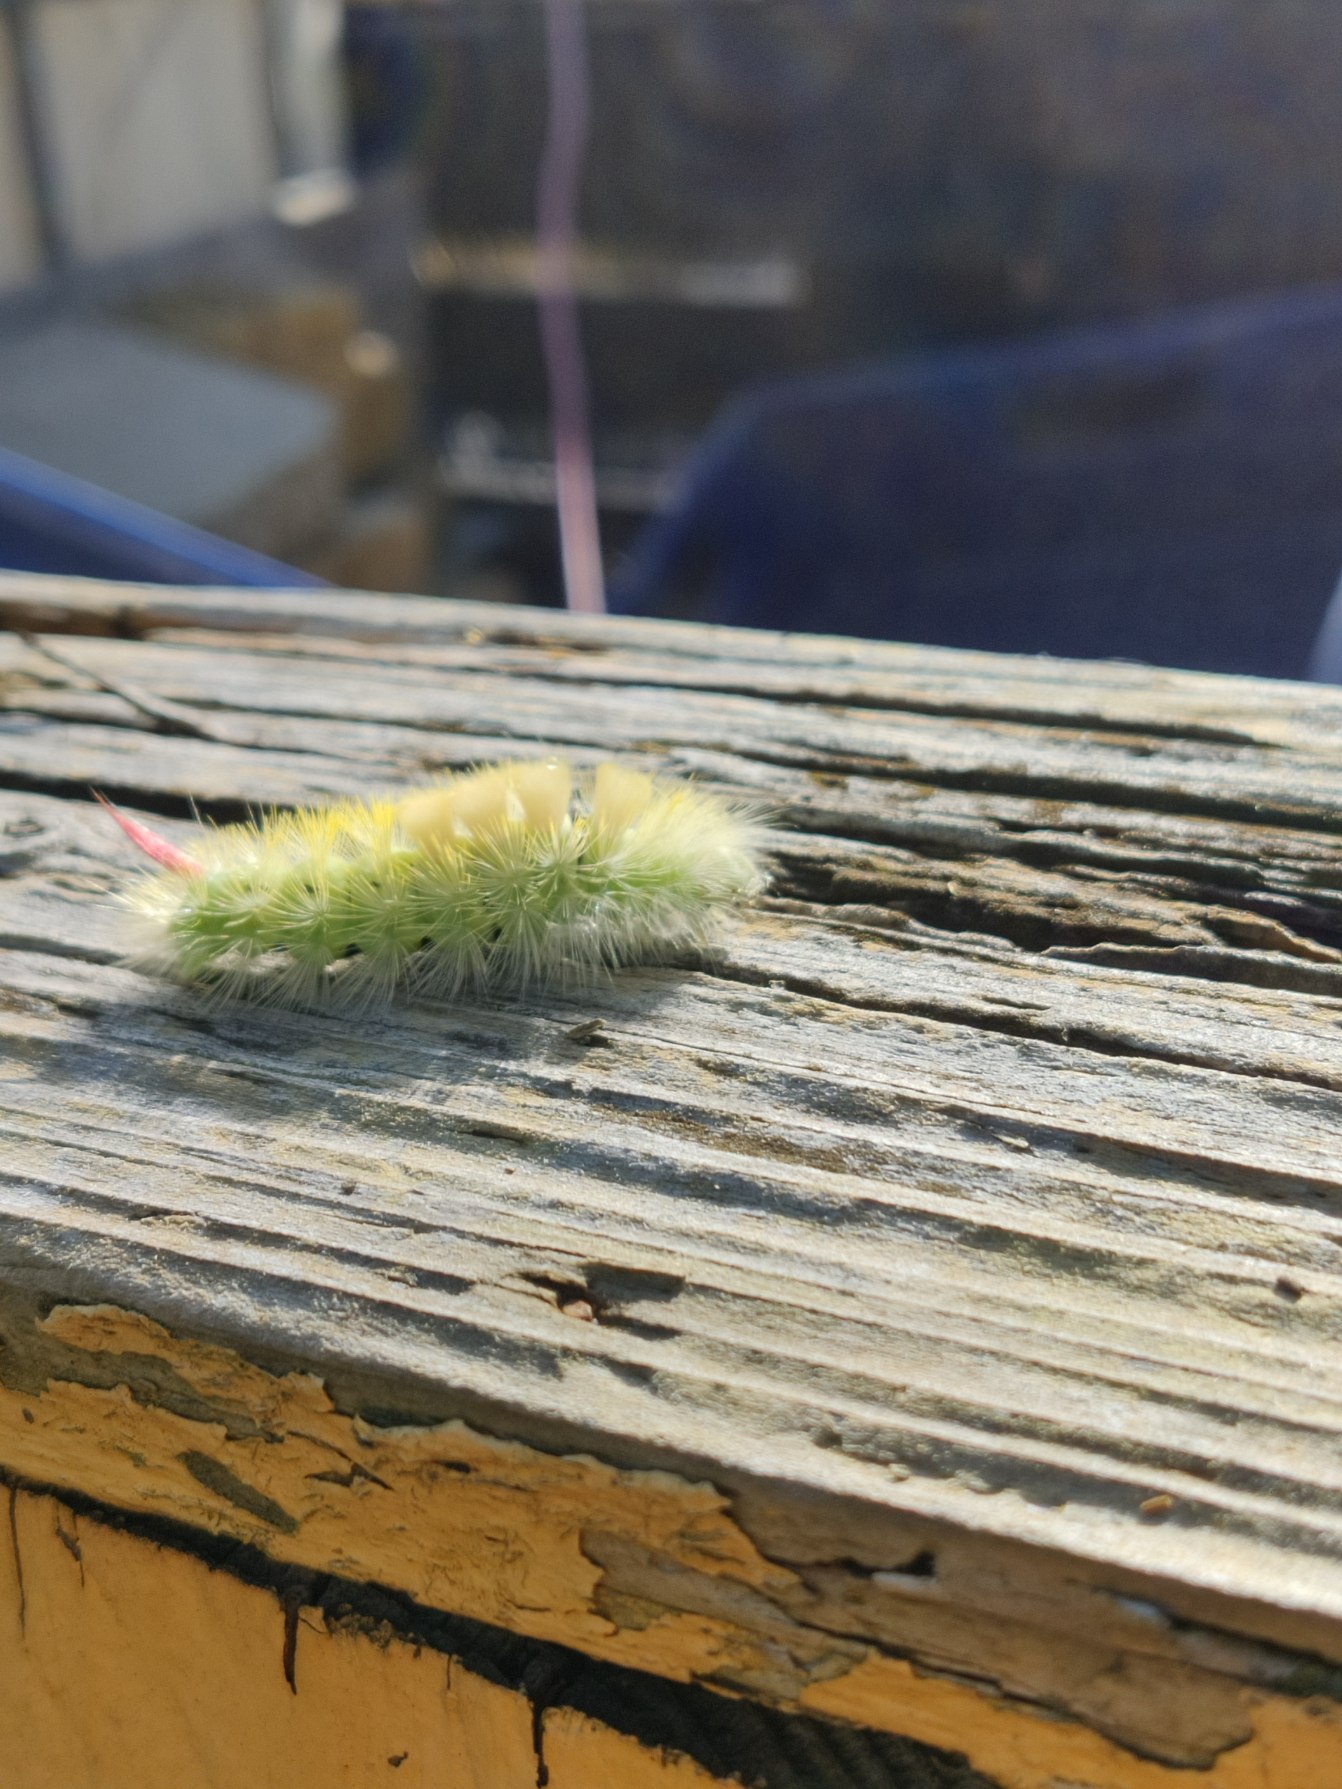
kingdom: Animalia
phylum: Arthropoda
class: Insecta
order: Lepidoptera
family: Erebidae
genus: Calliteara
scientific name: Calliteara pudibunda
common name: Bøgenonne
